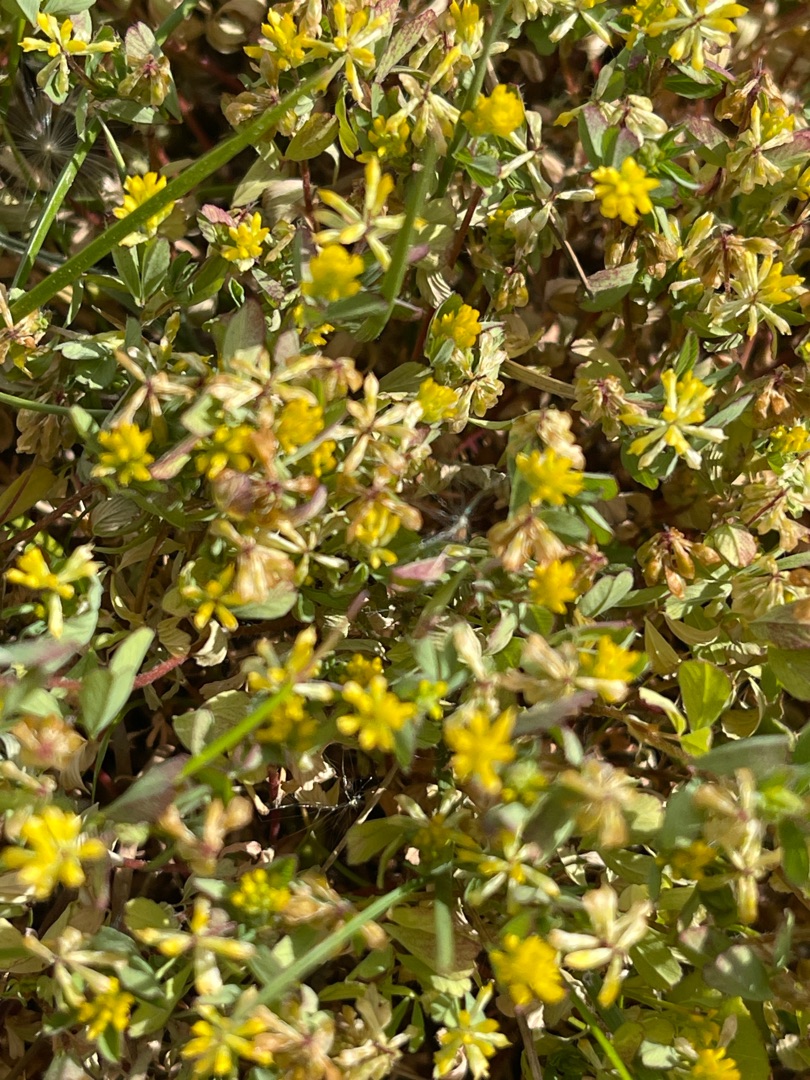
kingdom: Plantae
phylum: Tracheophyta
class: Magnoliopsida
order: Fabales
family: Fabaceae
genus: Trifolium
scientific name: Trifolium dubium
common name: Fin kløver
